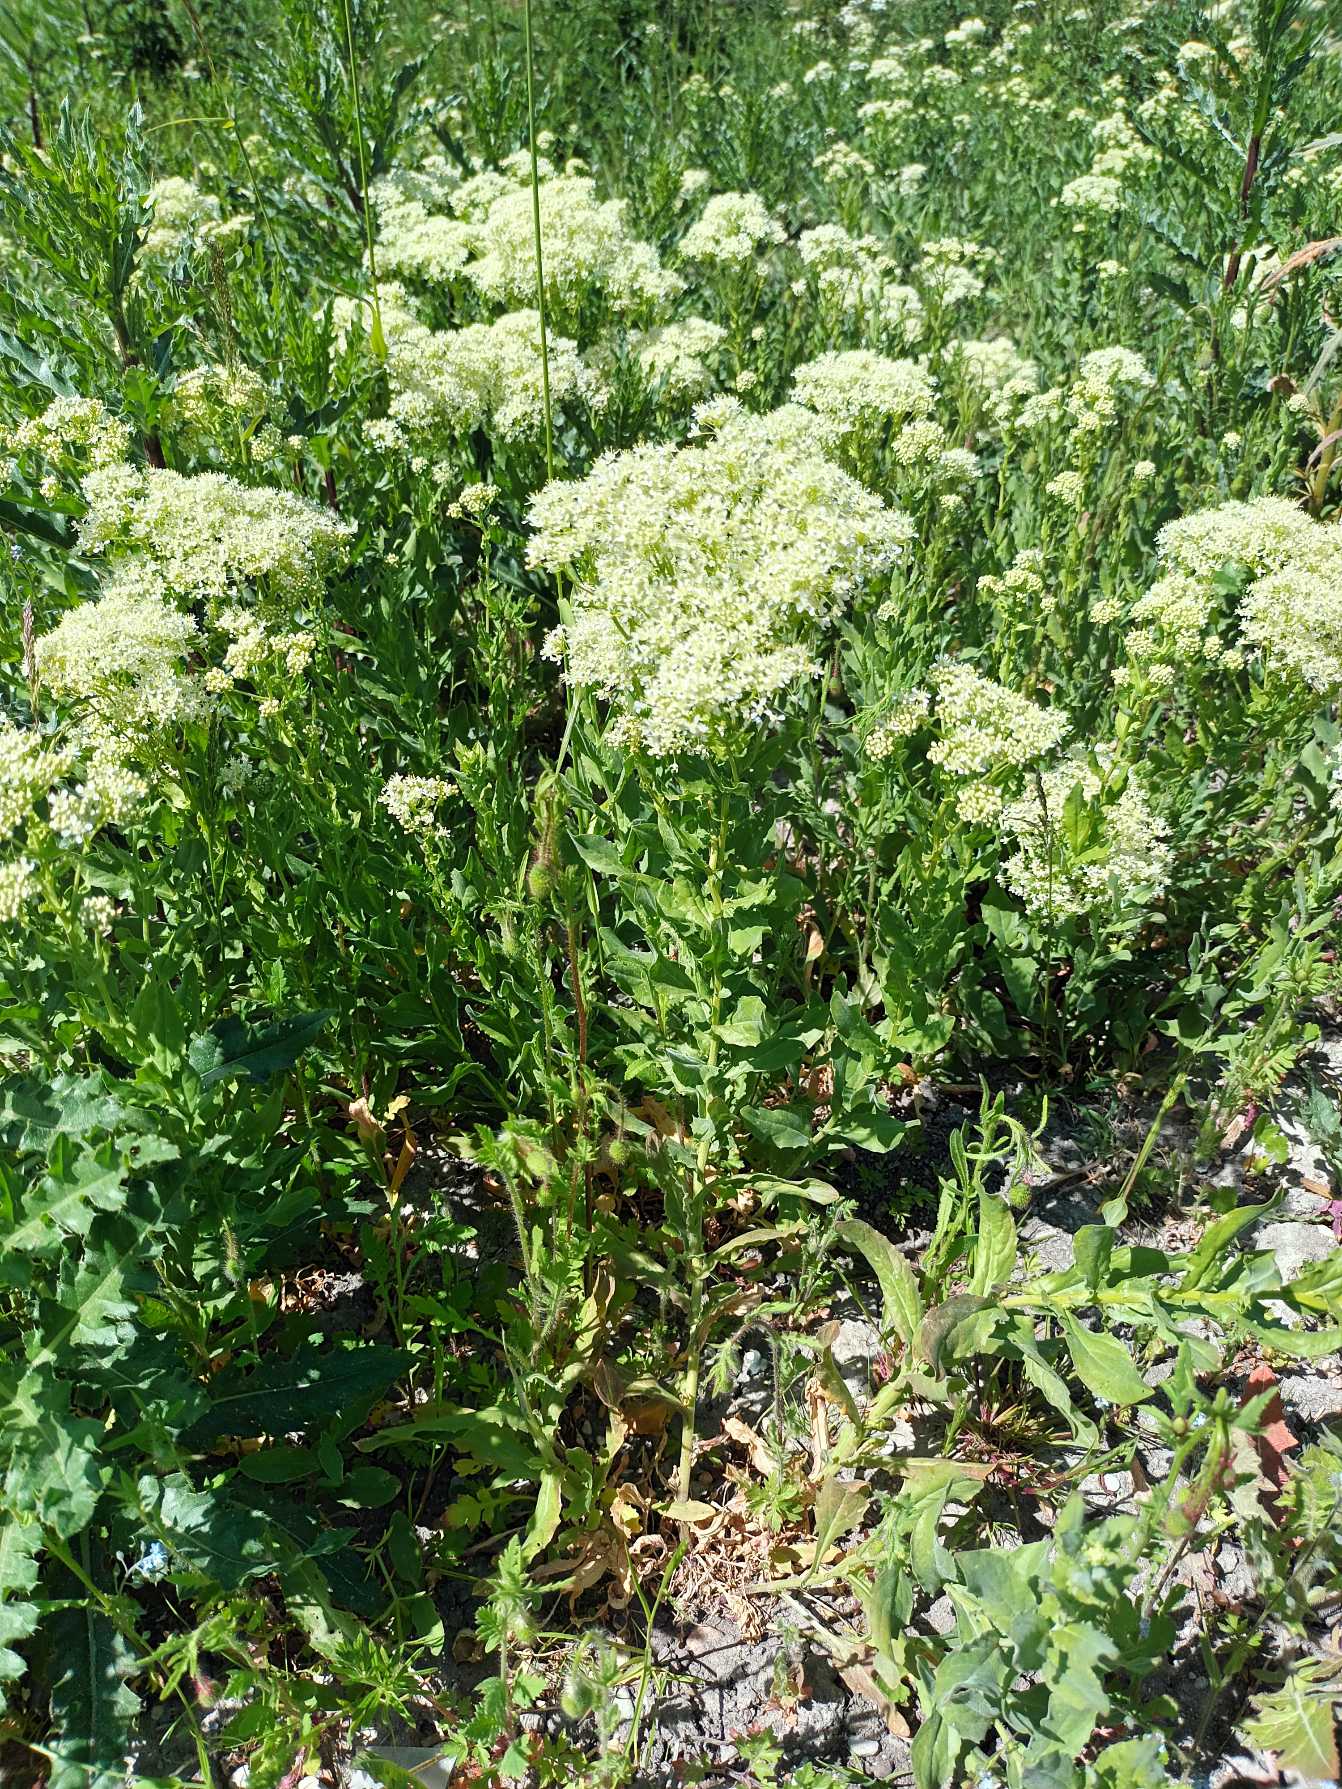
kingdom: Plantae
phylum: Tracheophyta
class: Magnoliopsida
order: Brassicales
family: Brassicaceae
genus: Lepidium
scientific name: Lepidium draba
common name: Hjerte-karse
